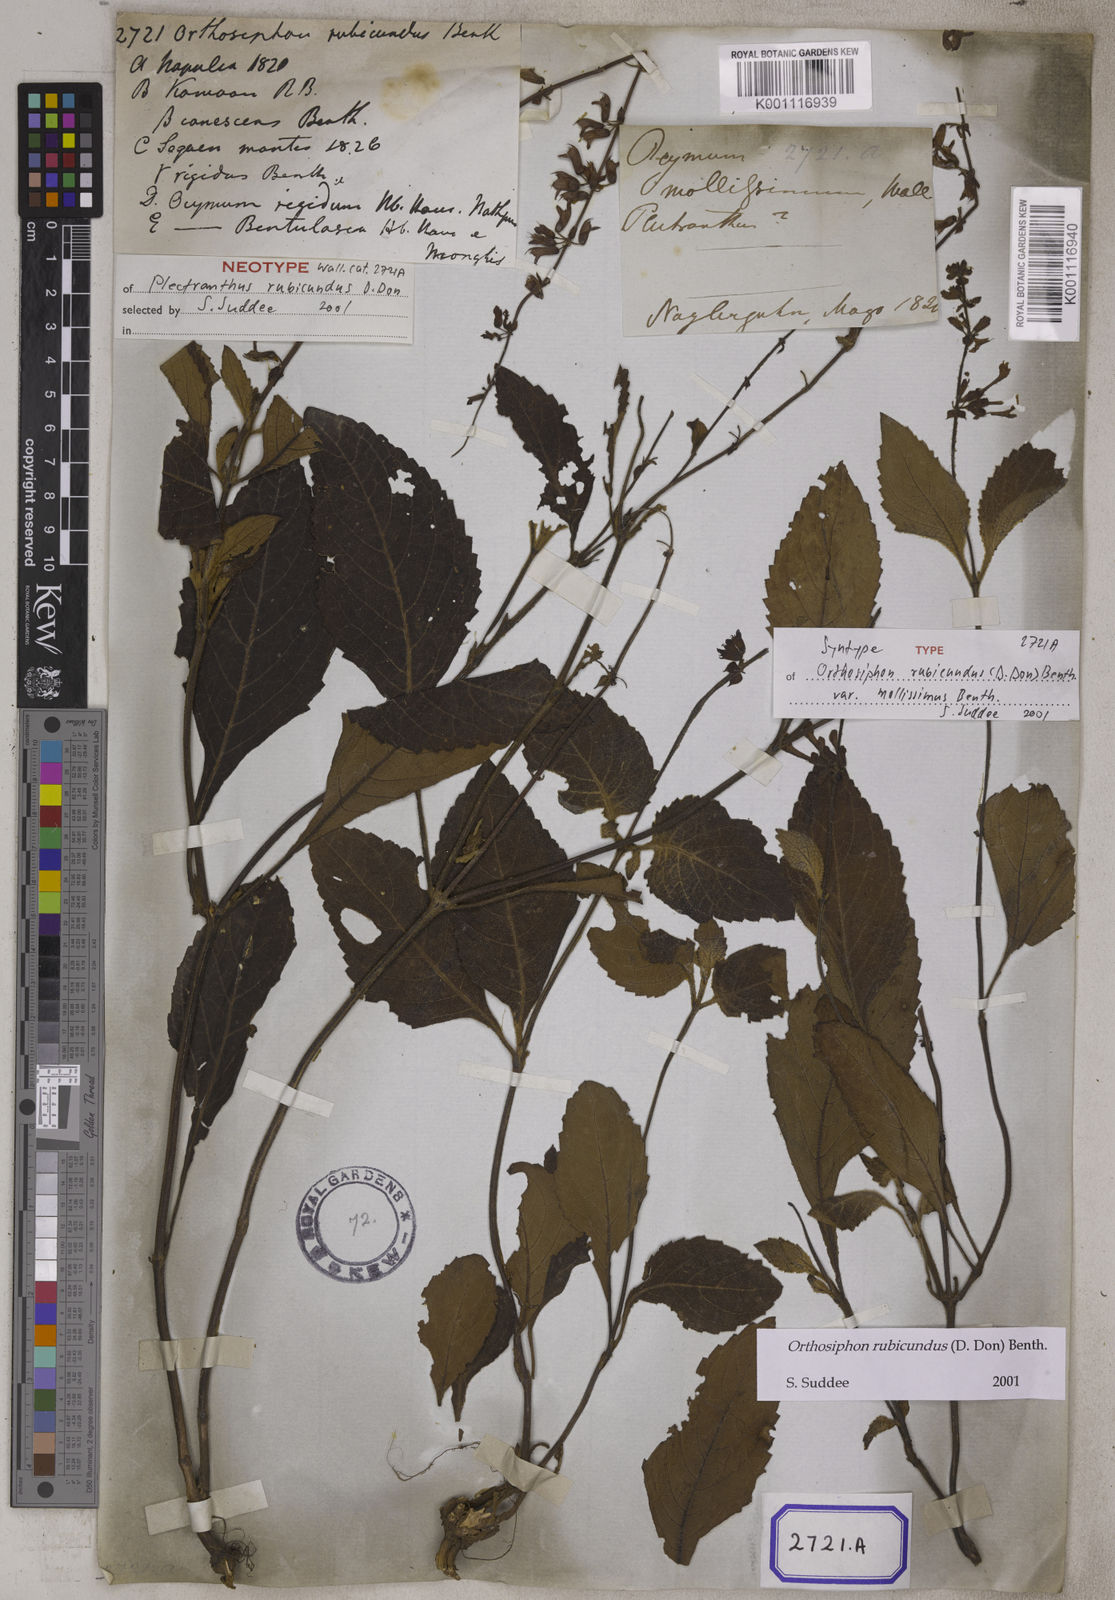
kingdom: Plantae
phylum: Tracheophyta
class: Magnoliopsida
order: Lamiales
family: Lamiaceae
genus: Orthosiphon
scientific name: Orthosiphon rubicundus
